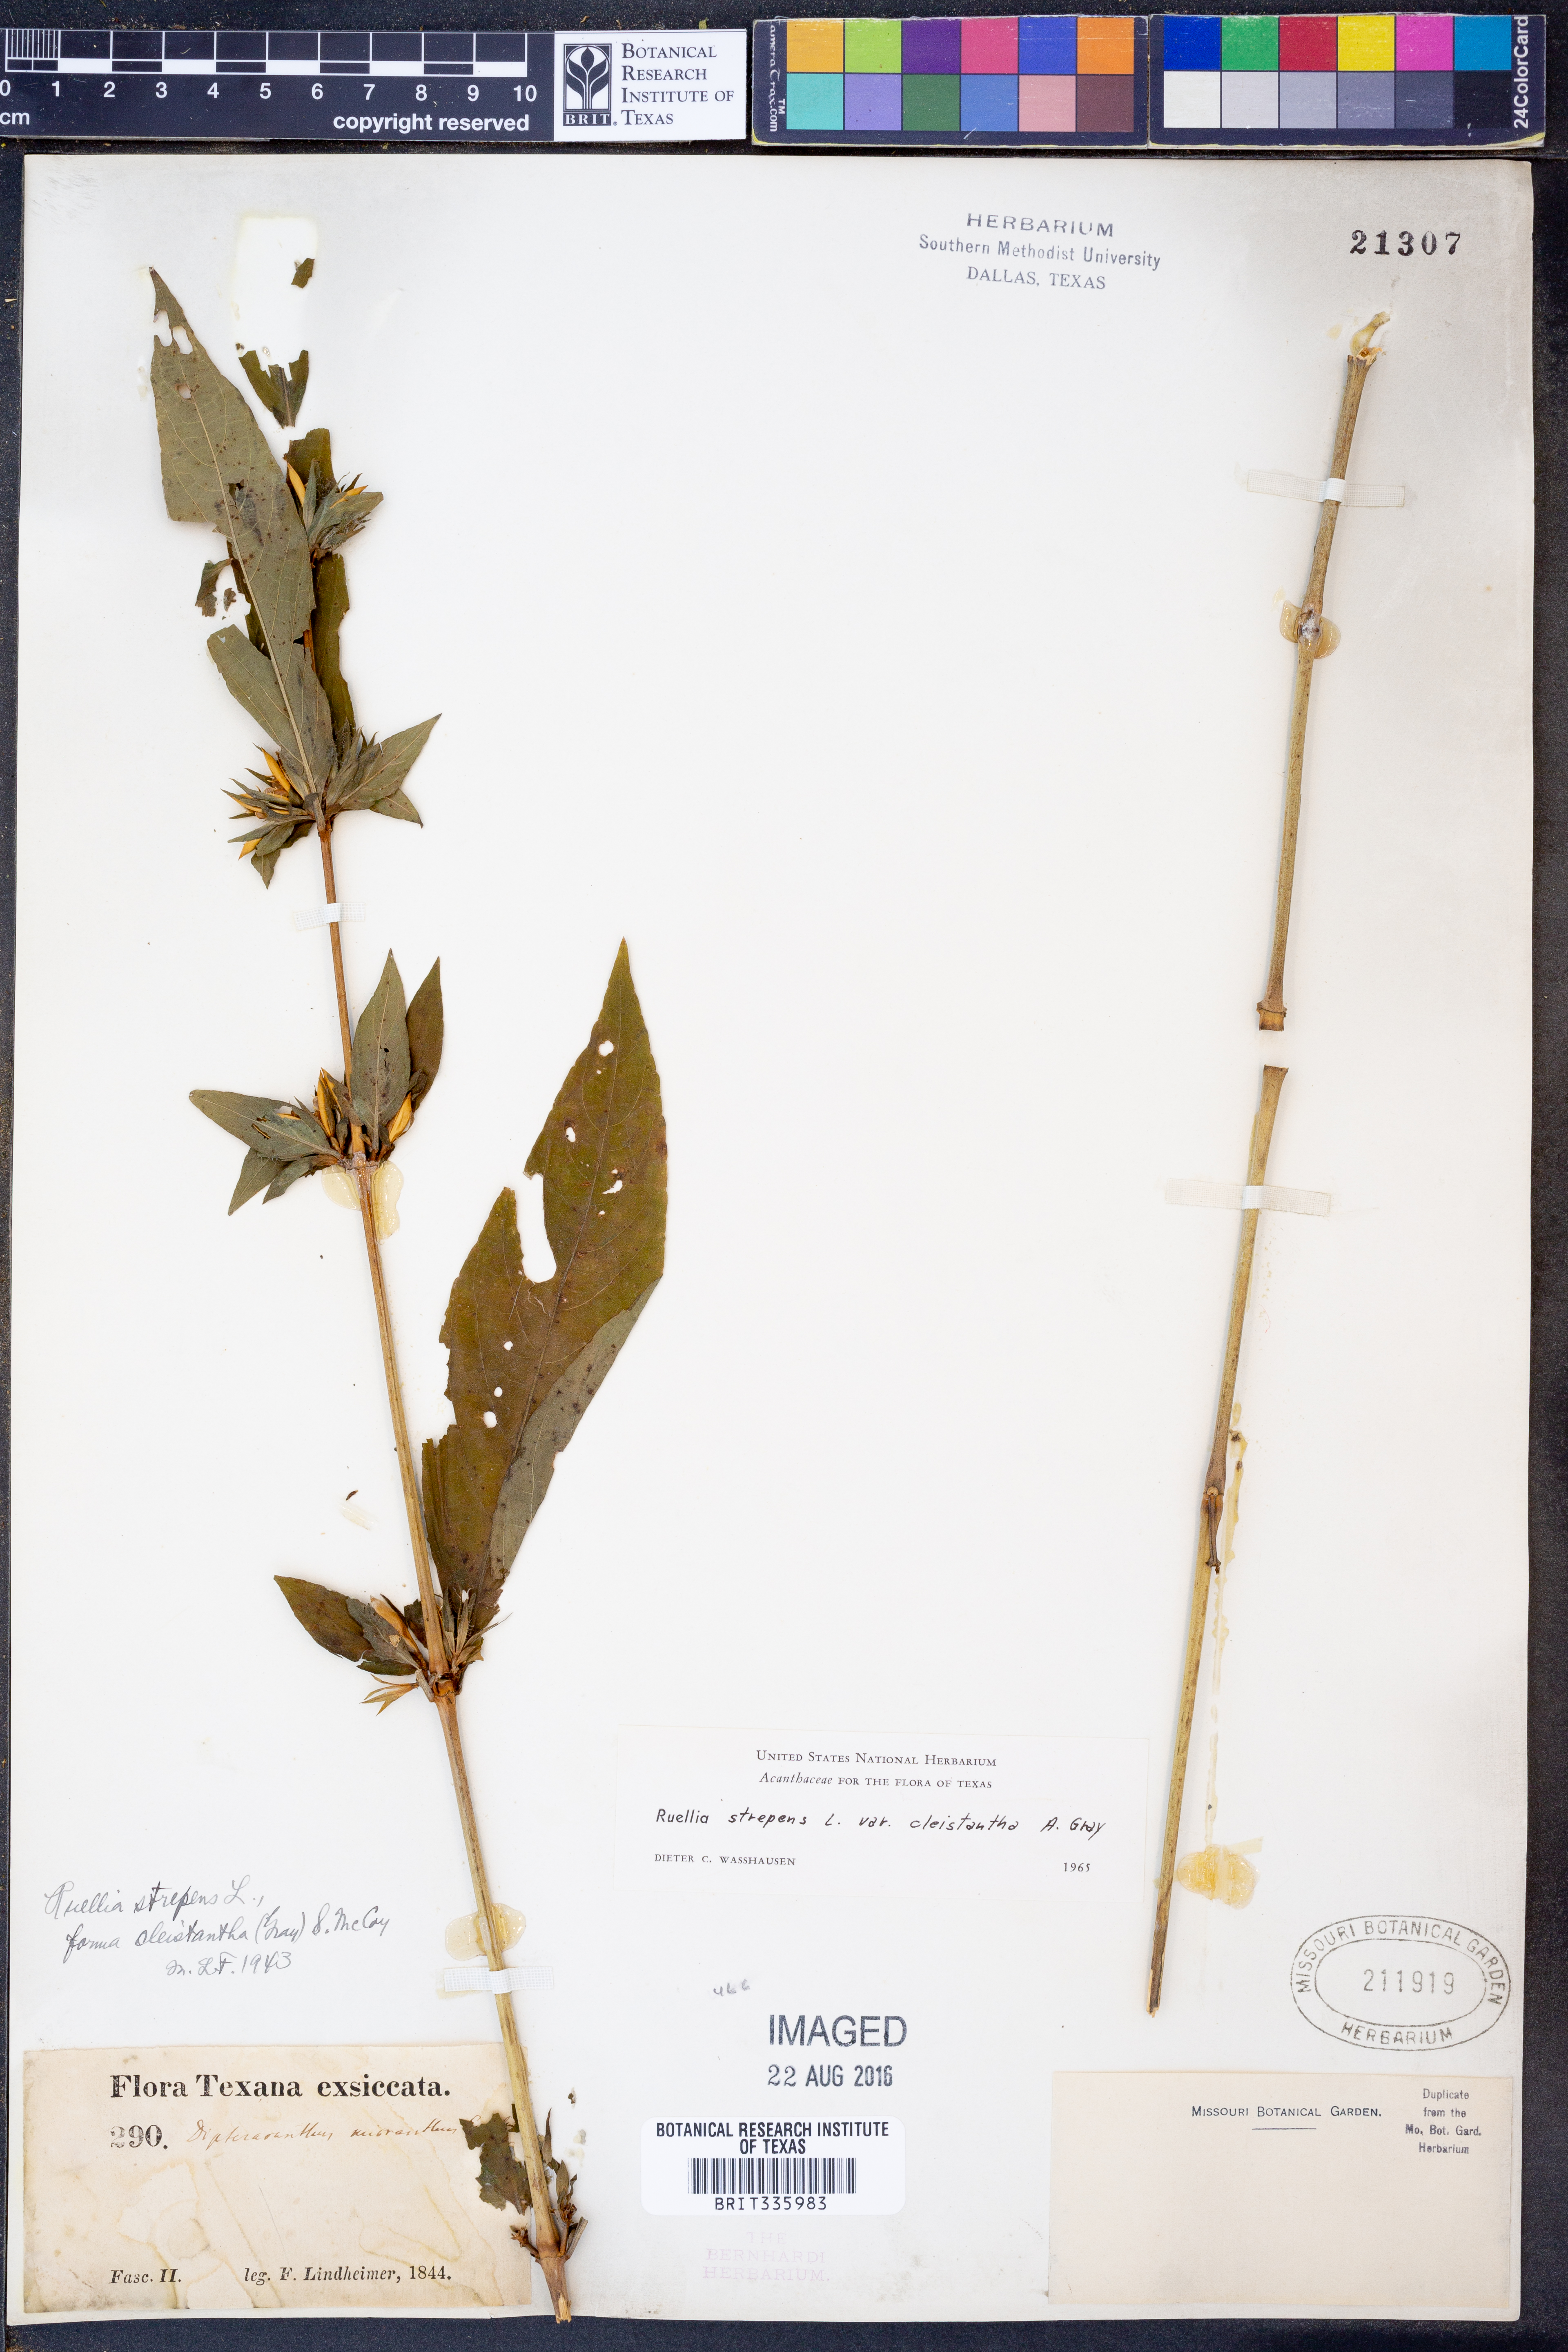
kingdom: Plantae
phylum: Tracheophyta
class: Magnoliopsida
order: Lamiales
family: Acanthaceae
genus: Ruellia
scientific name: Ruellia strepens
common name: Limestone wild petunia
